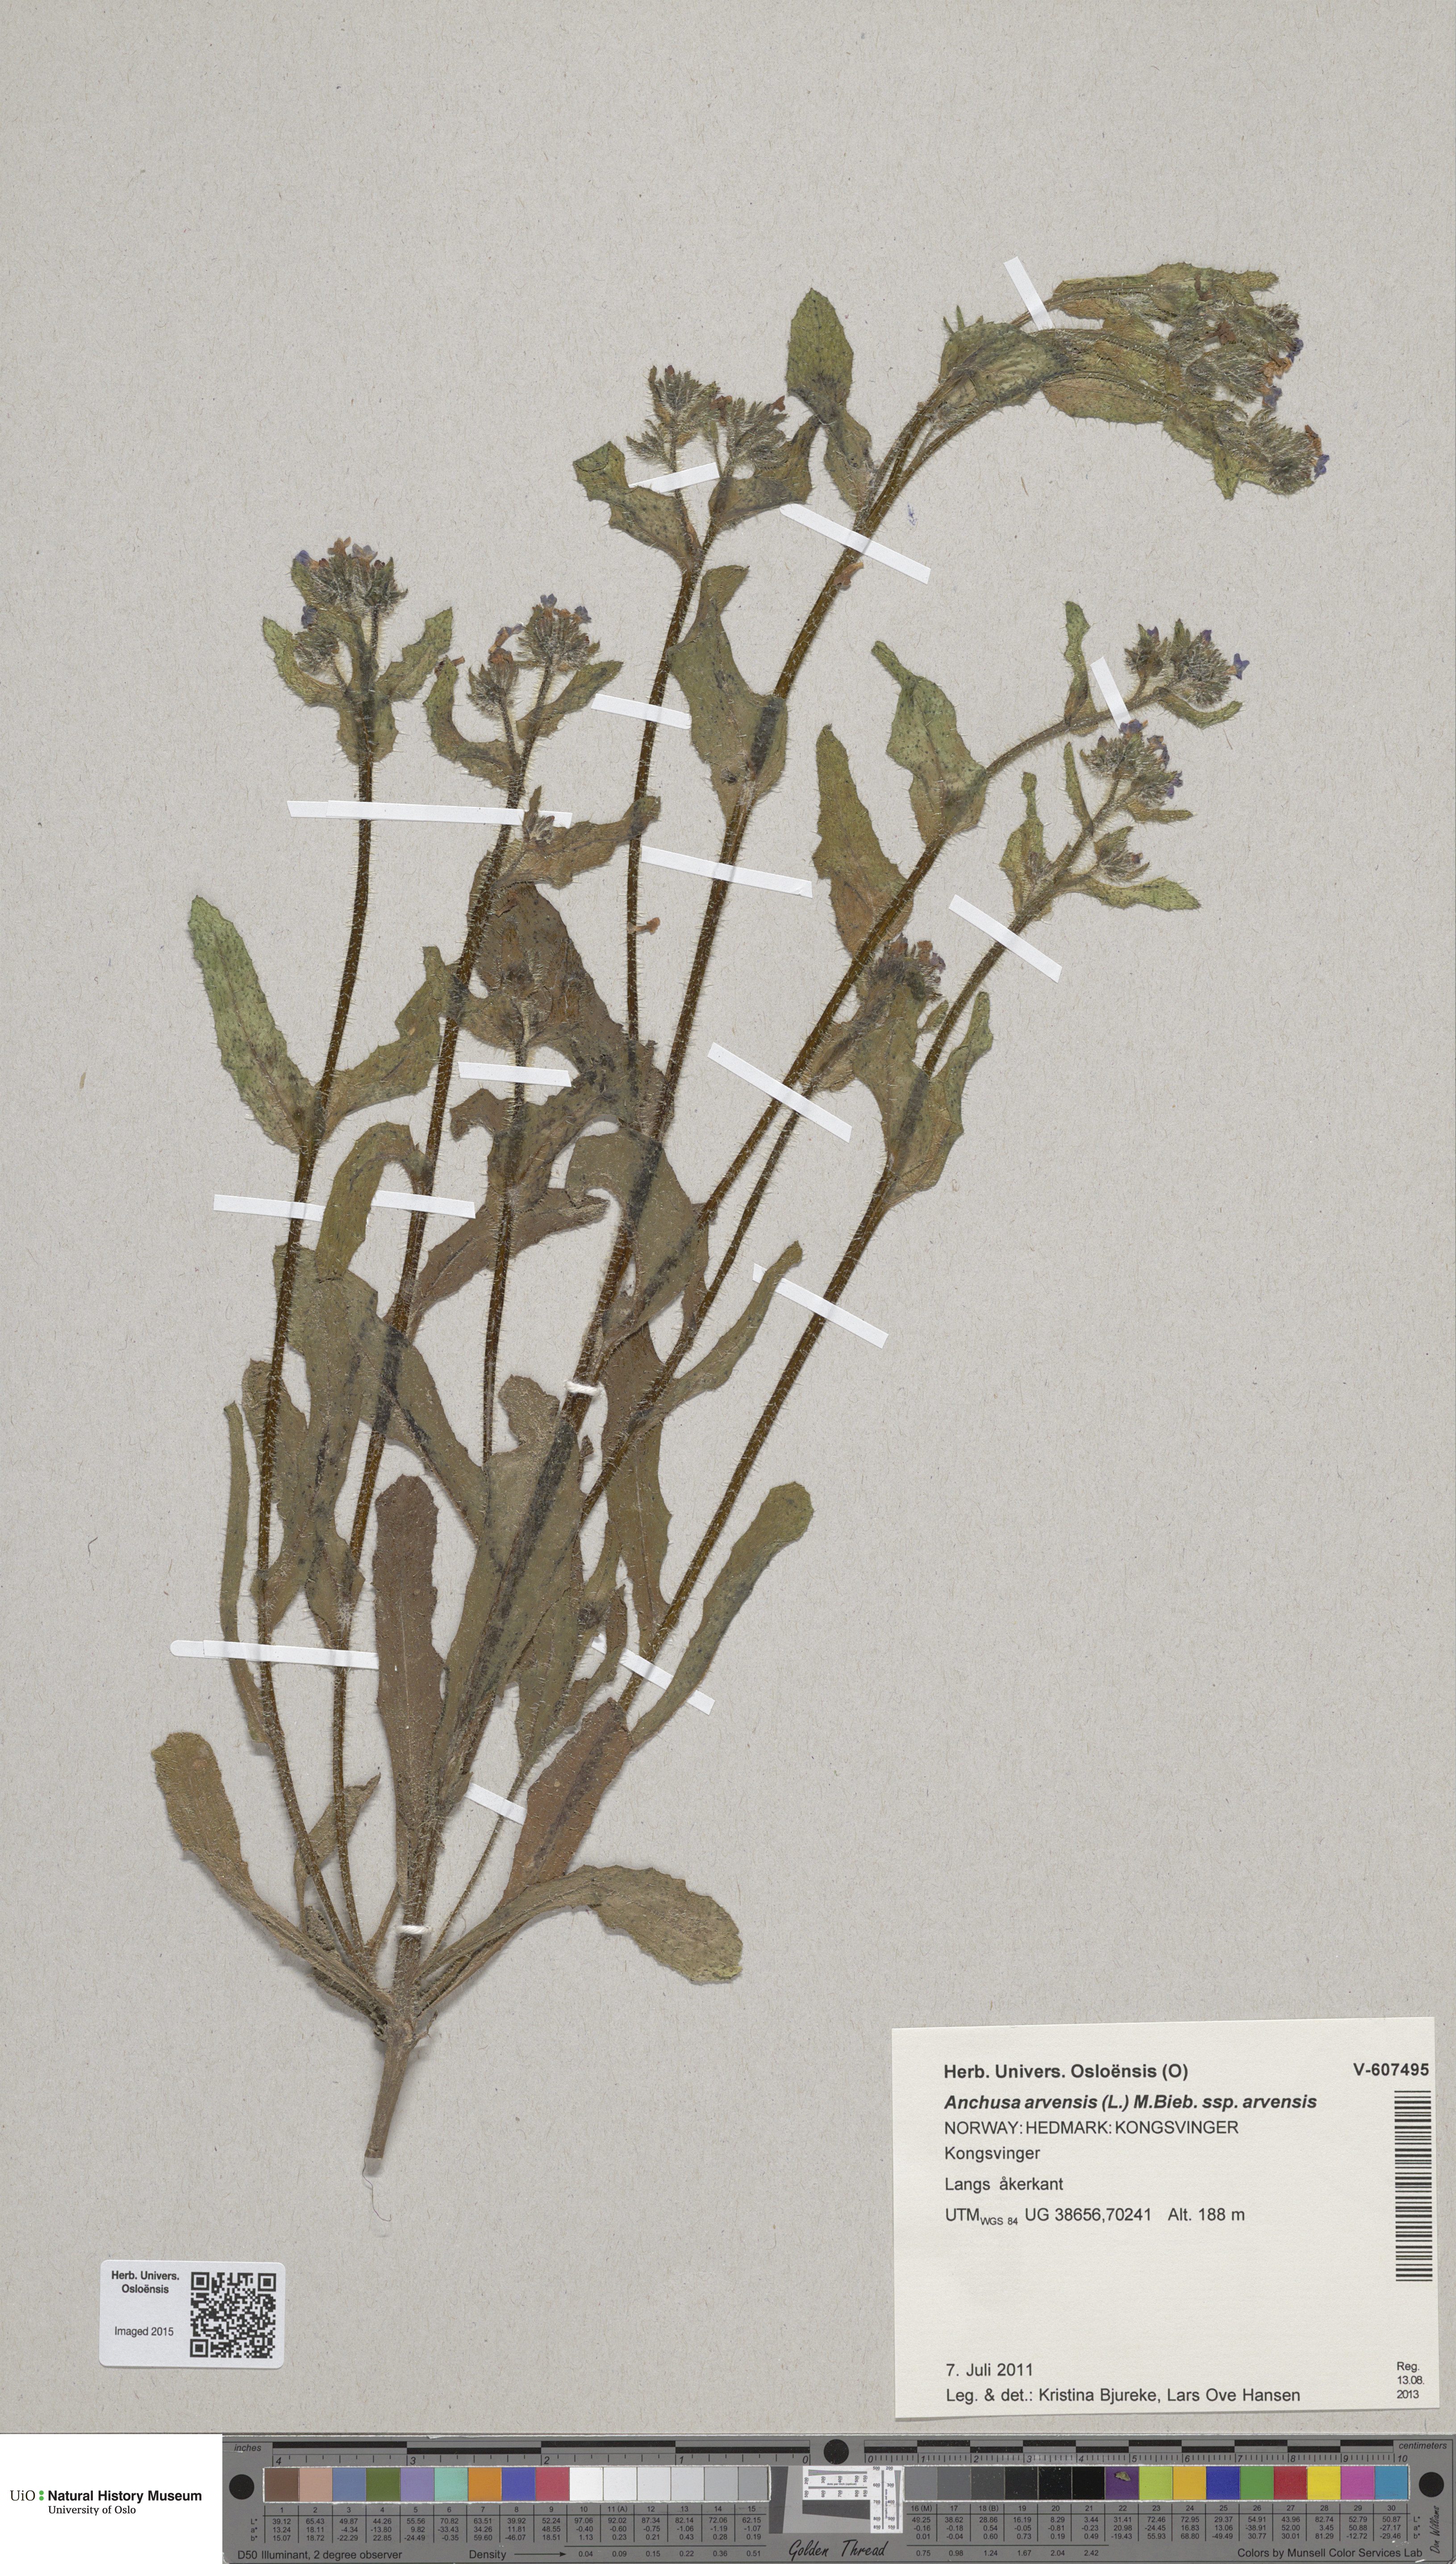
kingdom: Plantae
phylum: Tracheophyta
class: Magnoliopsida
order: Boraginales
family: Boraginaceae
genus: Lycopsis
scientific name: Lycopsis arvensis
